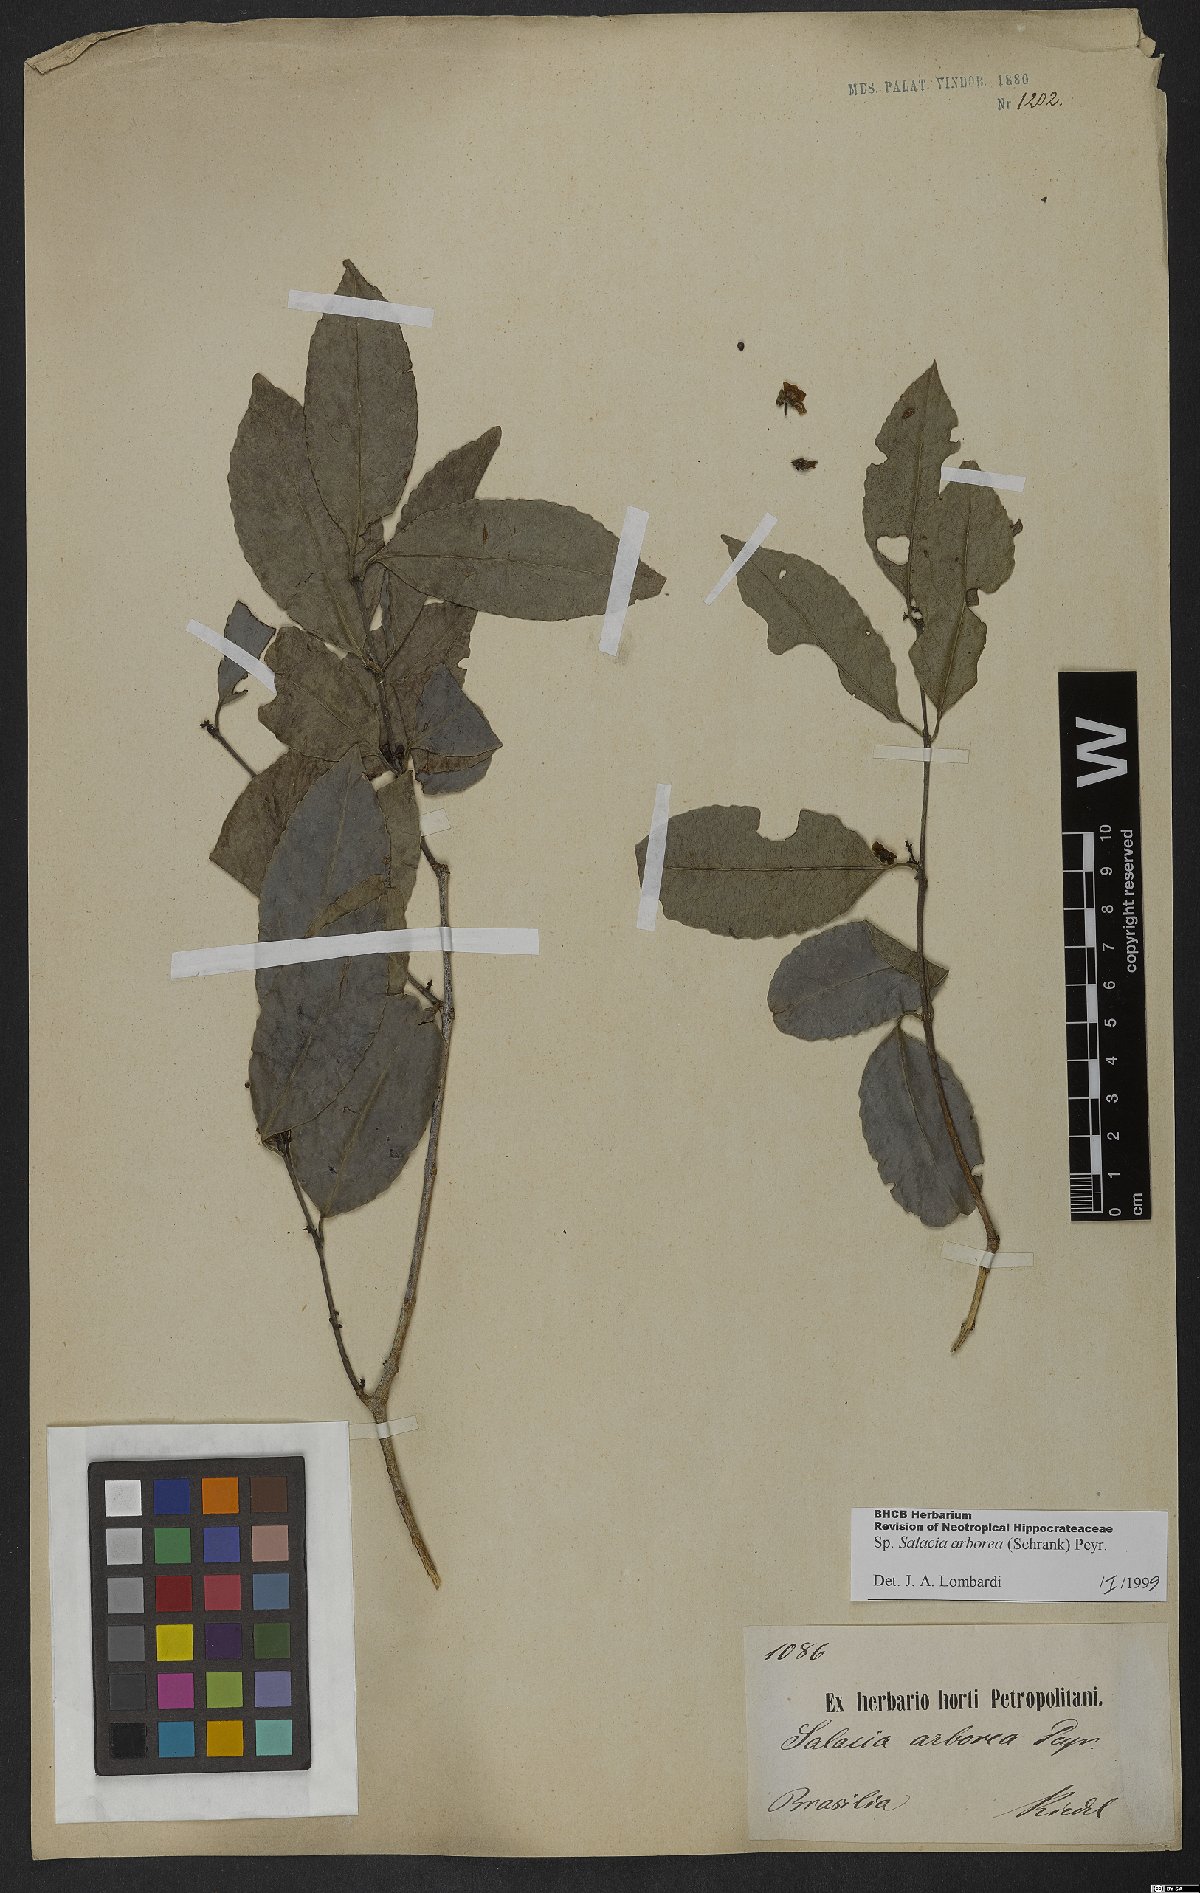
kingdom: Plantae
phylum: Tracheophyta
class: Magnoliopsida
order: Celastrales
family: Celastraceae
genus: Salacia
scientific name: Salacia arborea
